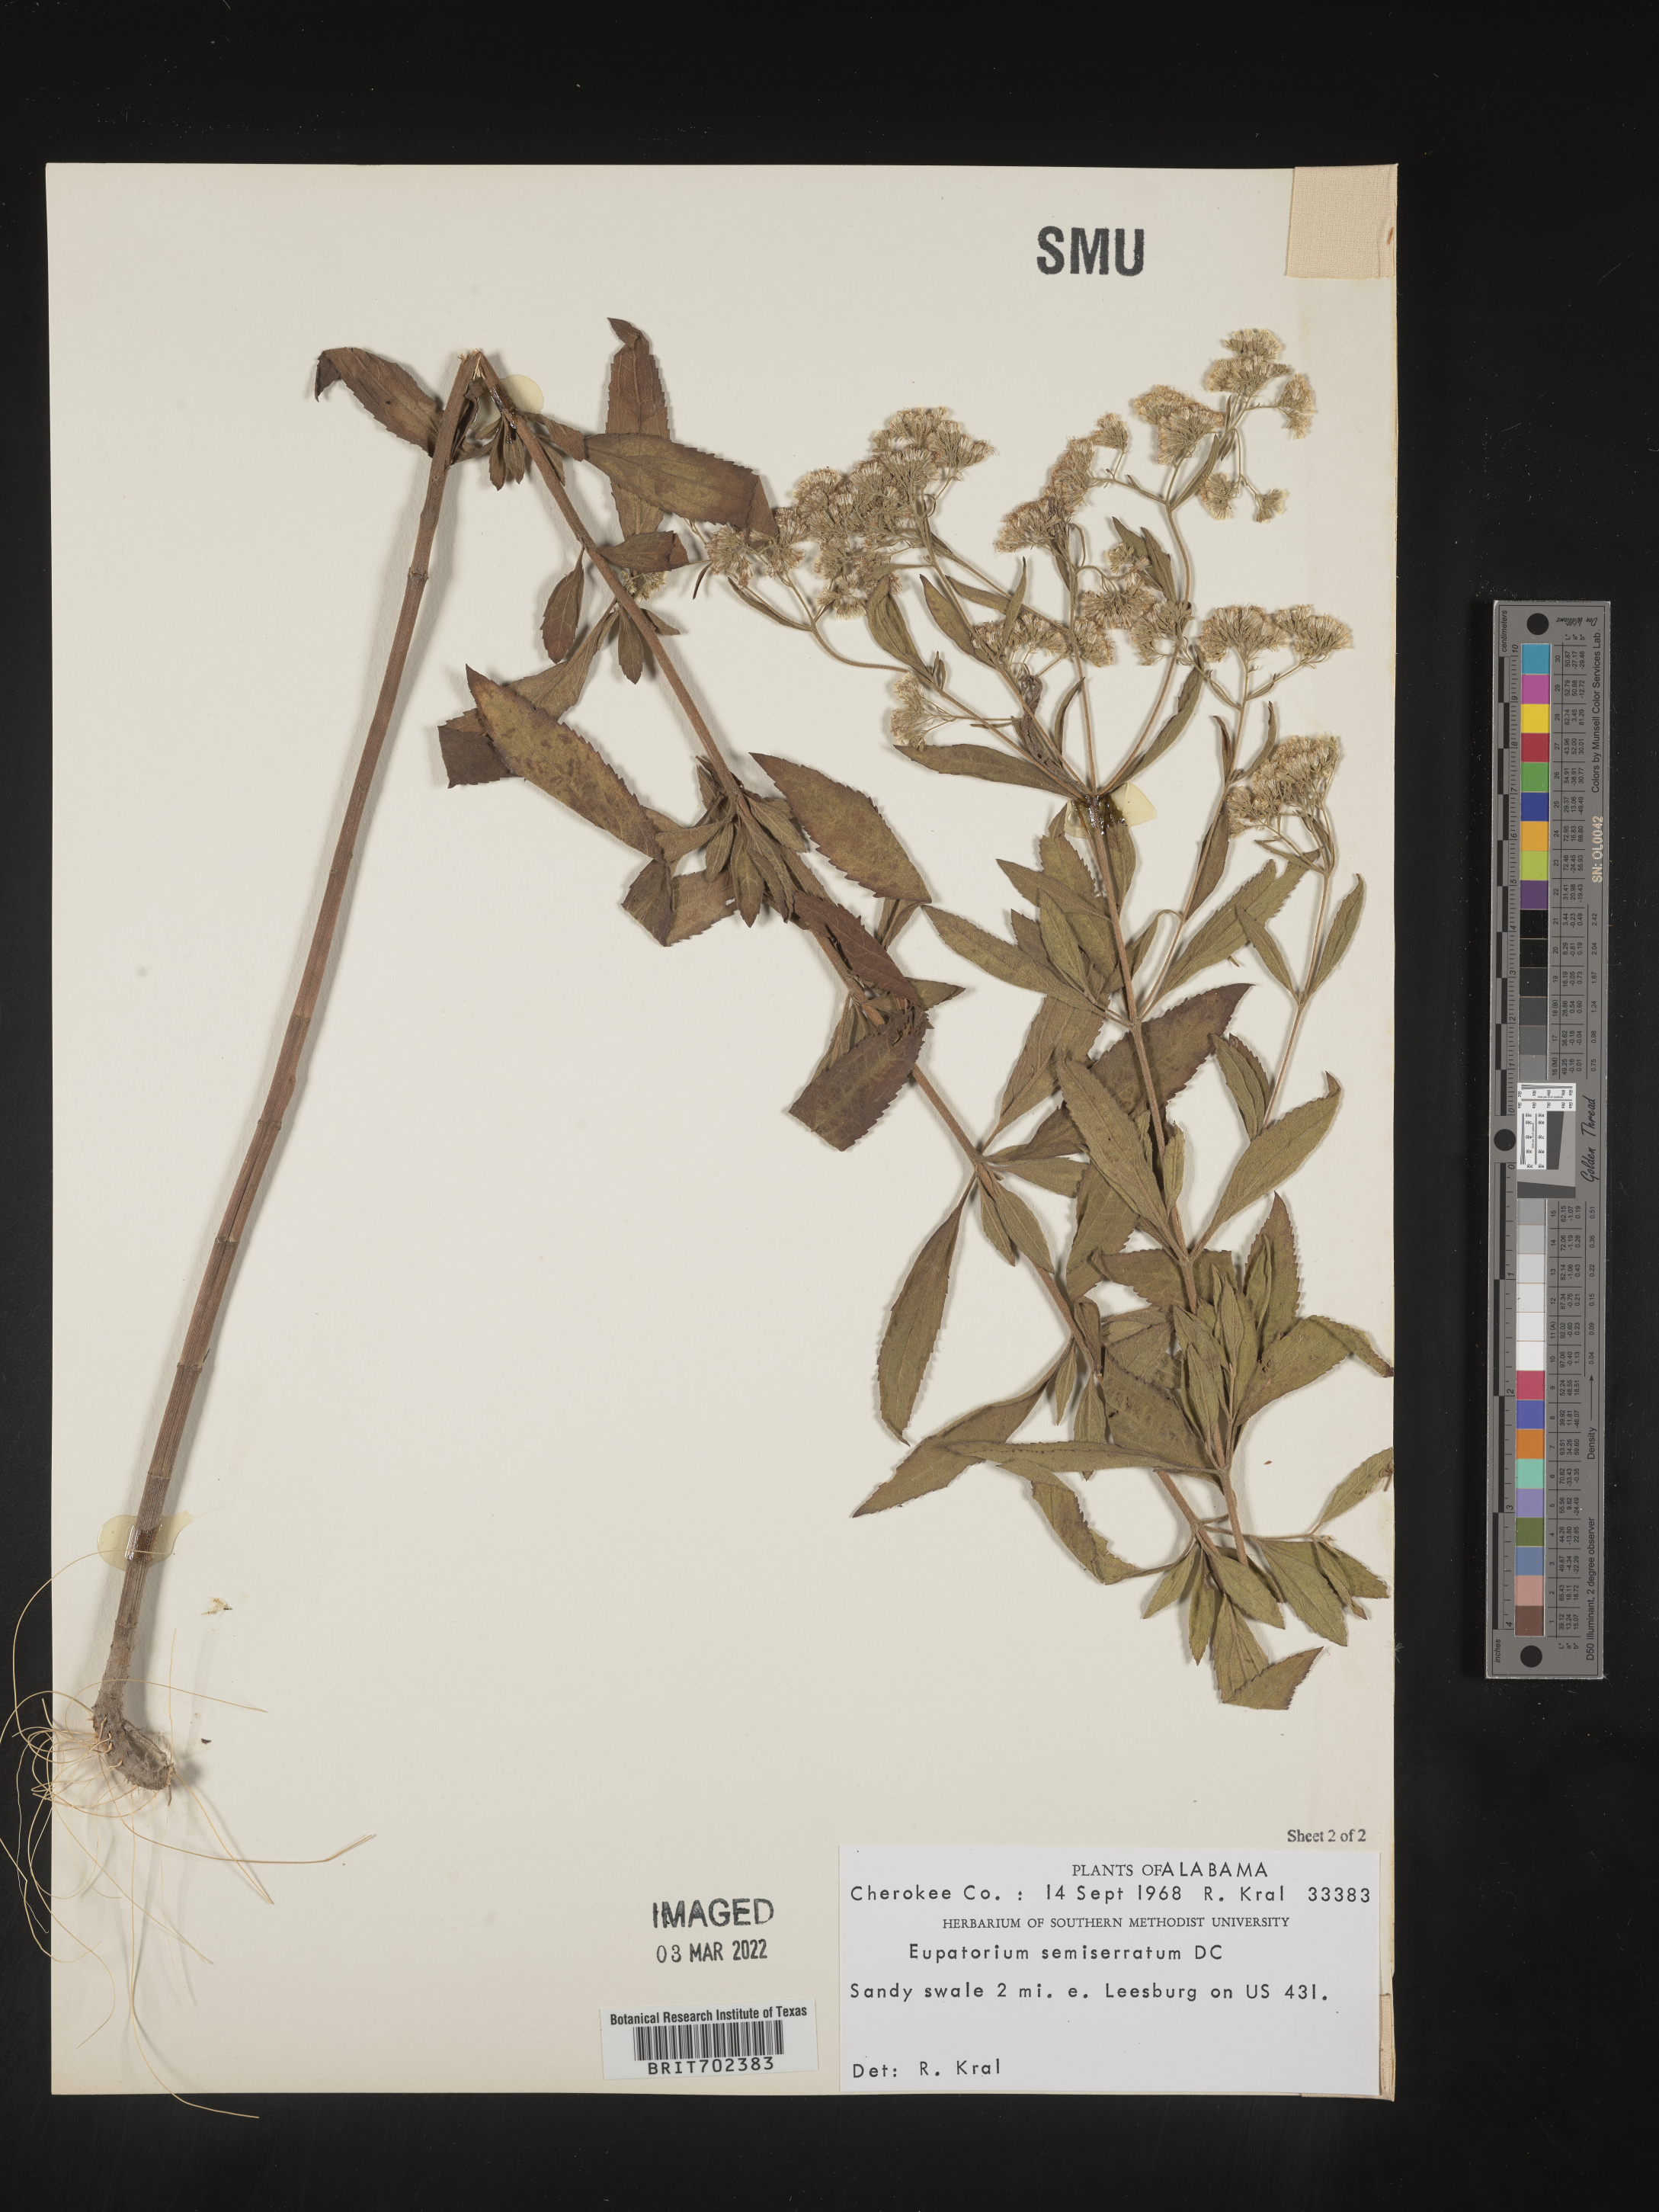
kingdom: Plantae
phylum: Tracheophyta
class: Magnoliopsida
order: Asterales
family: Asteraceae
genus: Eupatorium
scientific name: Eupatorium semiserratum
